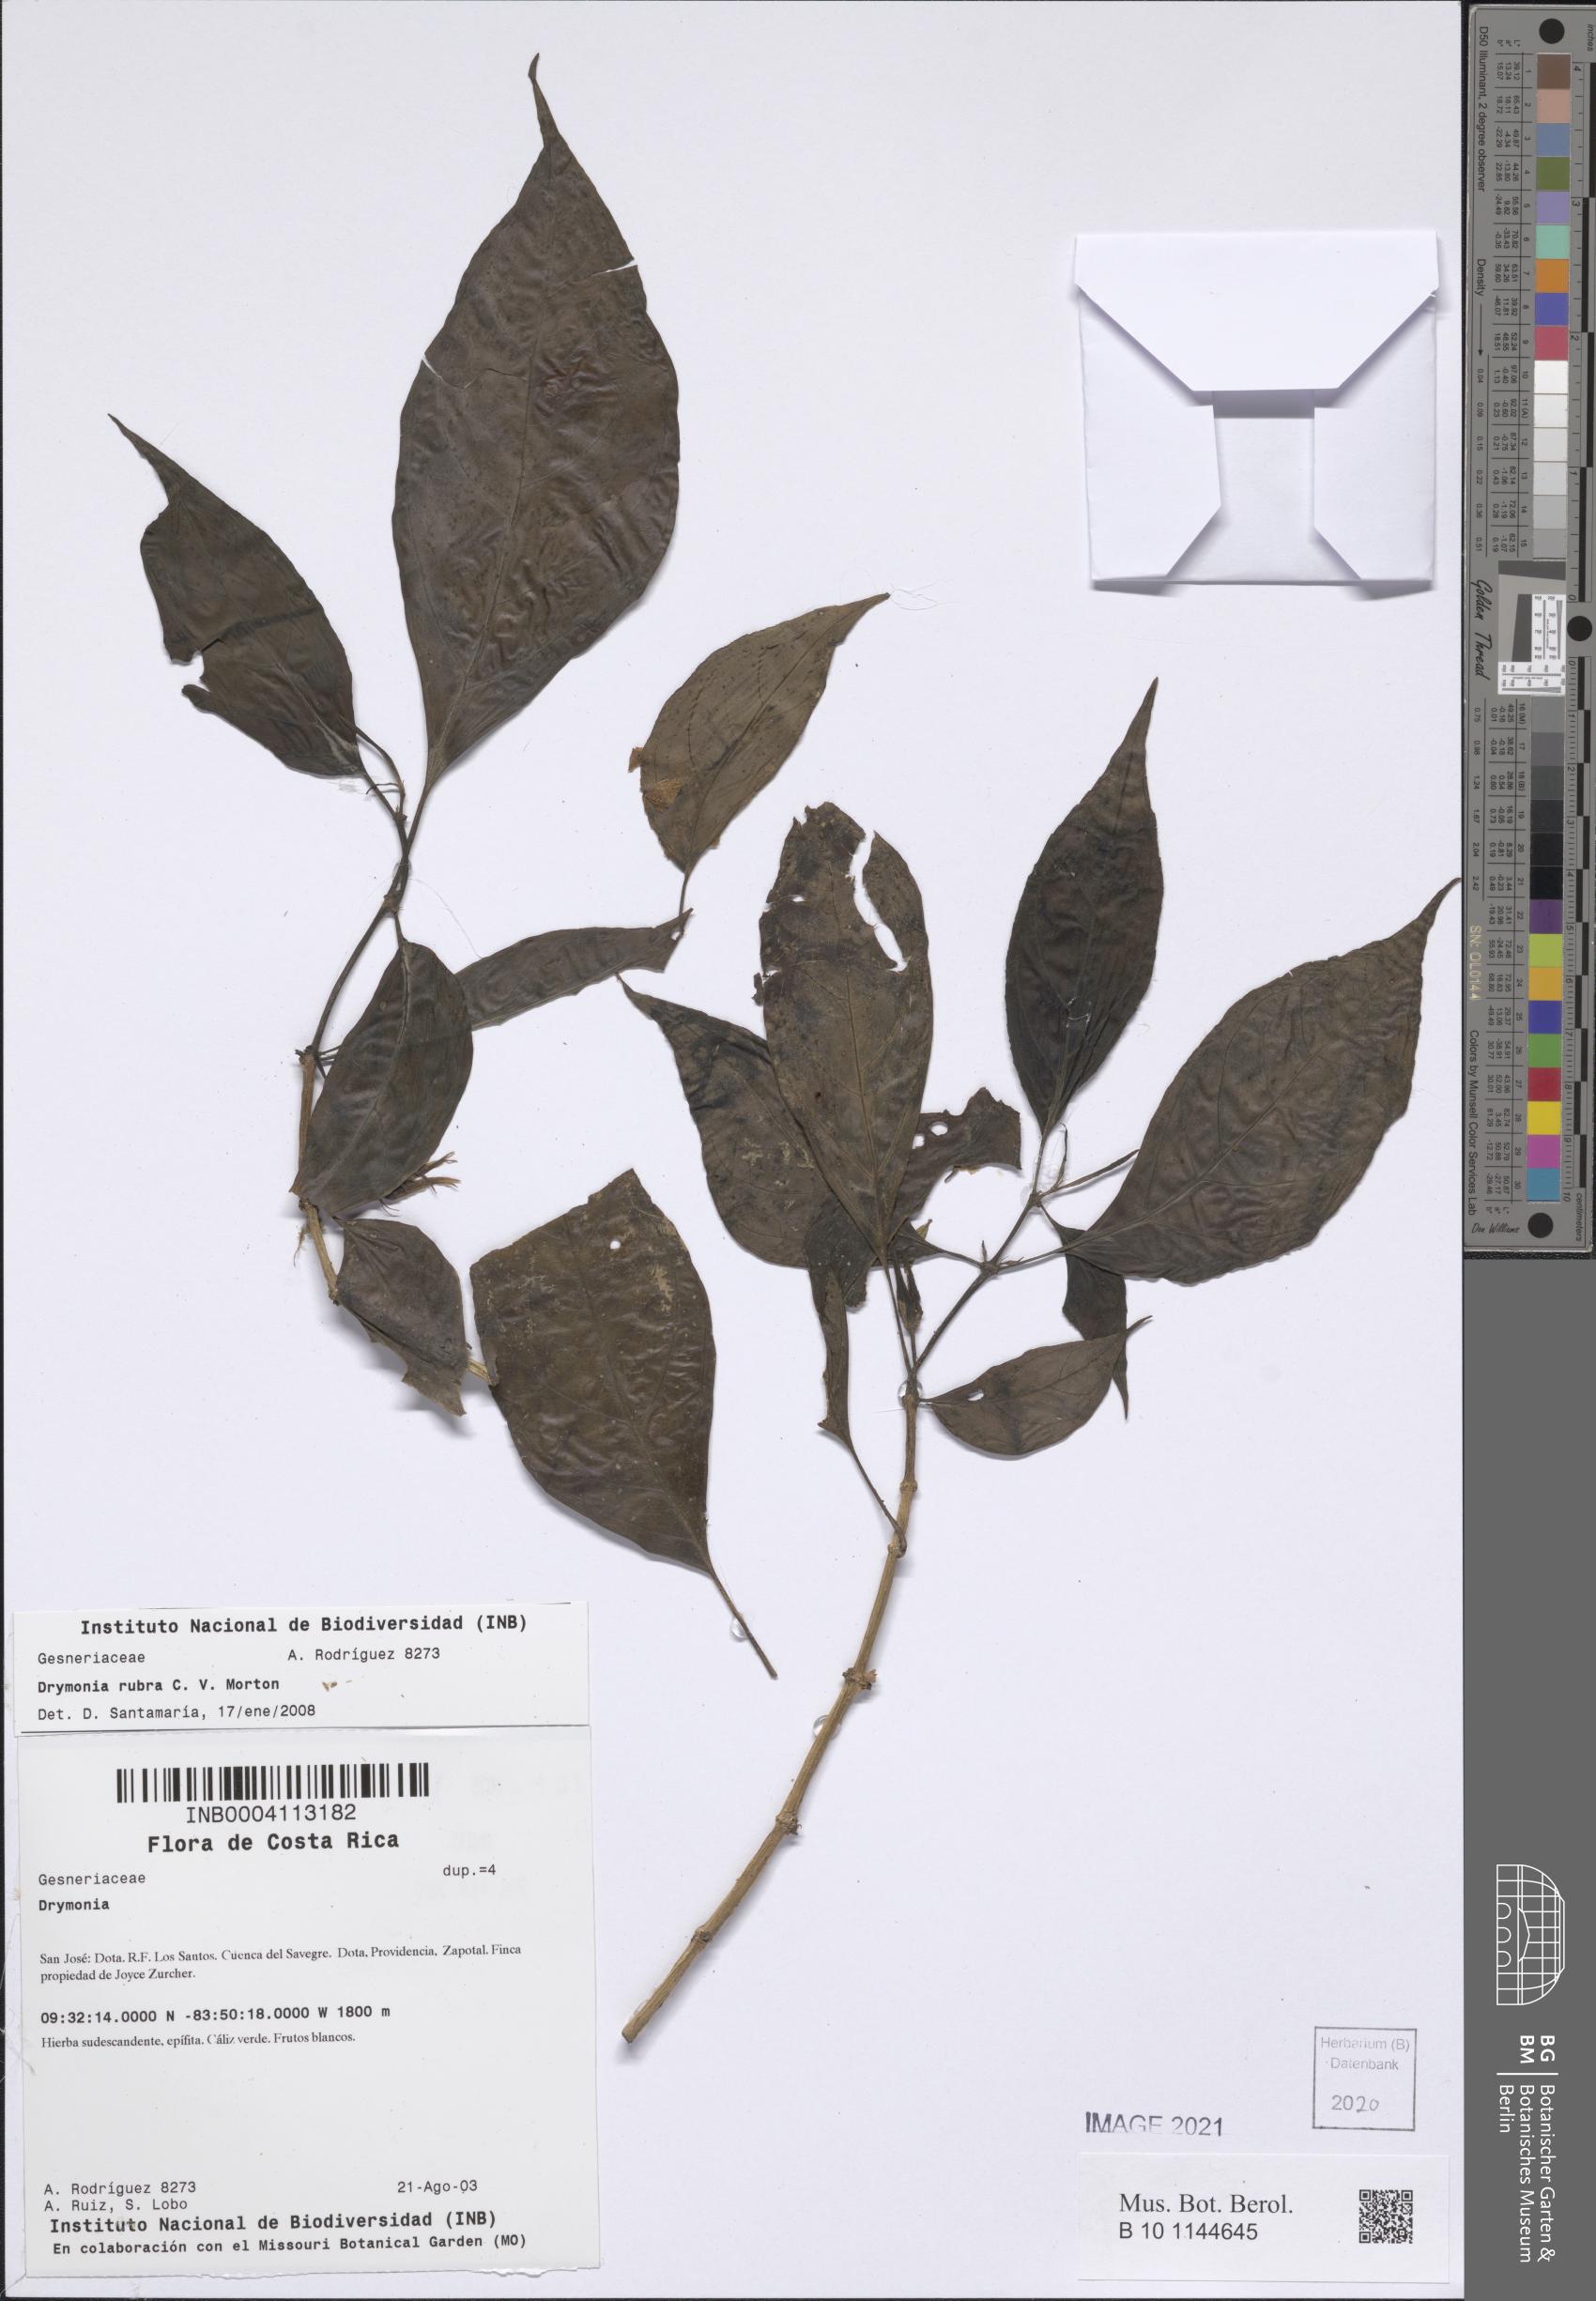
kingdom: Plantae
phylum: Tracheophyta
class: Magnoliopsida
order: Lamiales
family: Gesneriaceae
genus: Drymonia
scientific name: Drymonia rubra
